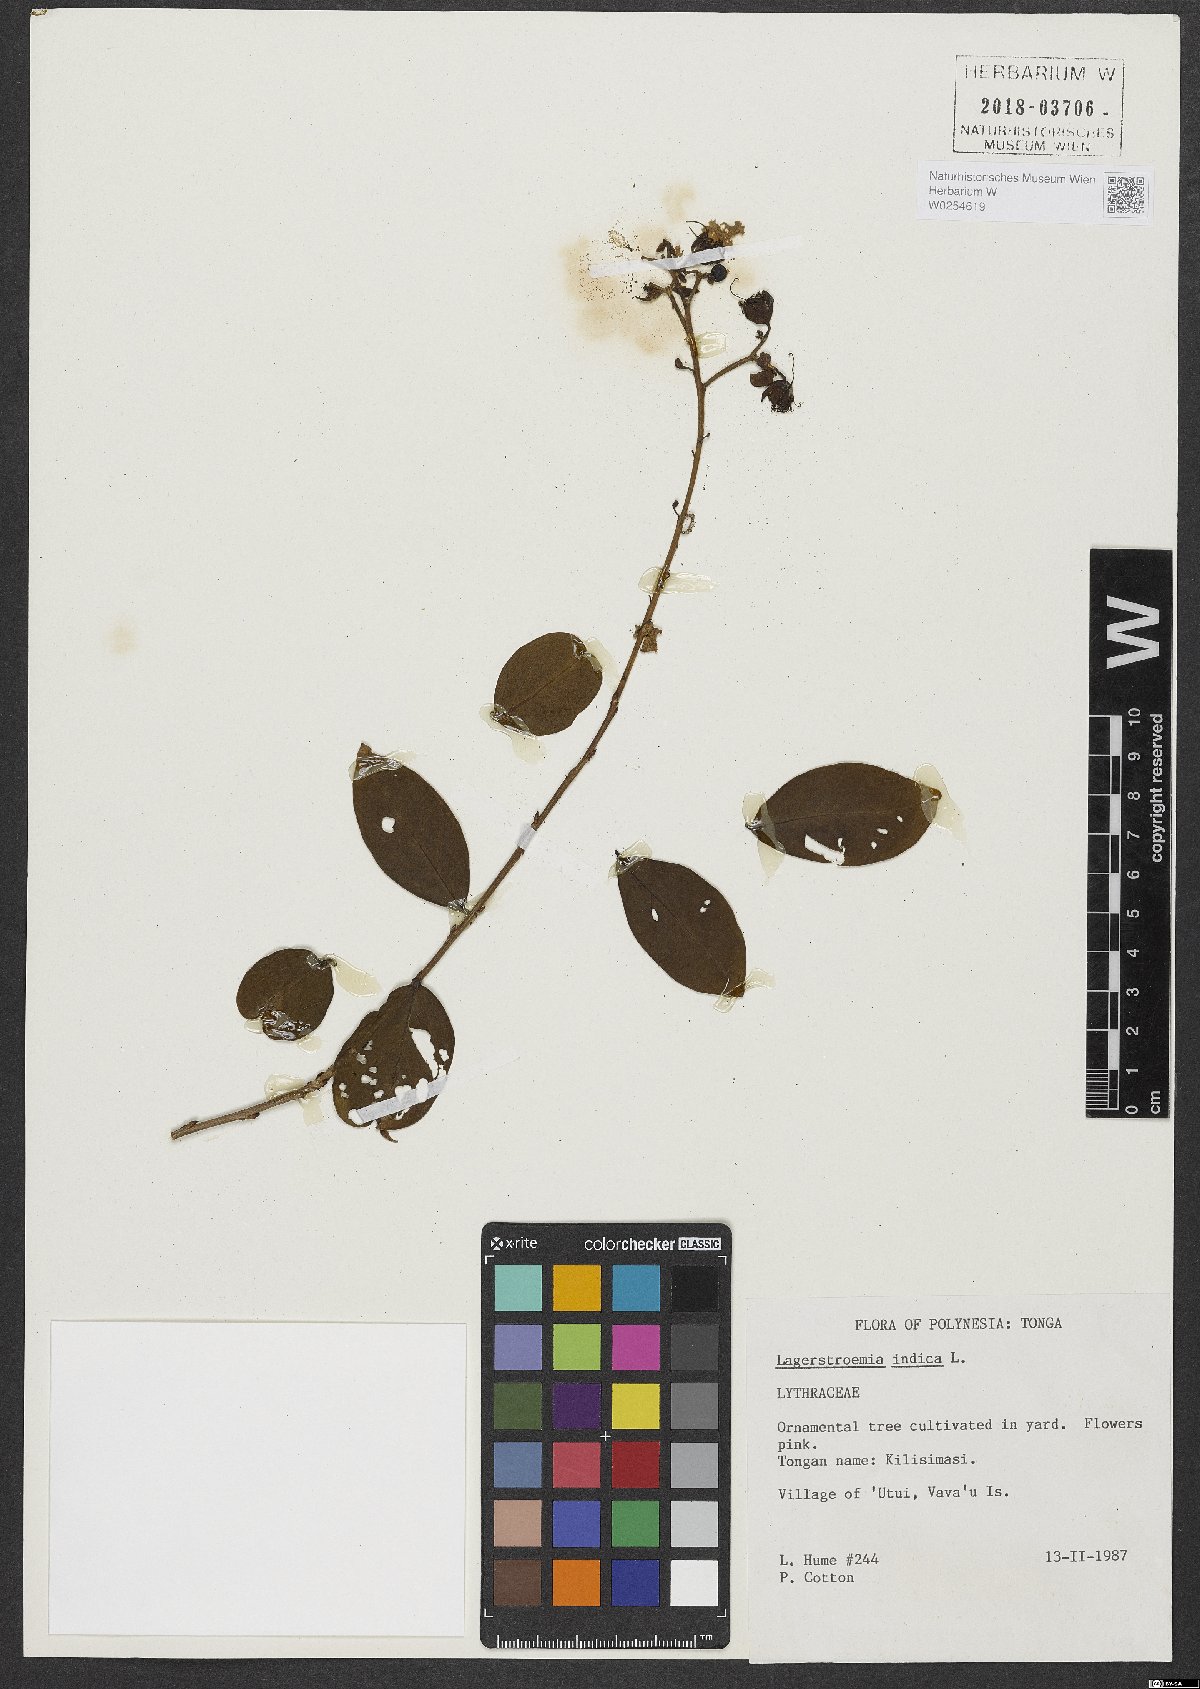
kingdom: Plantae
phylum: Tracheophyta
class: Magnoliopsida
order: Myrtales
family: Lythraceae
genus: Lagerstroemia
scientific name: Lagerstroemia indica
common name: Crape-myrtle
